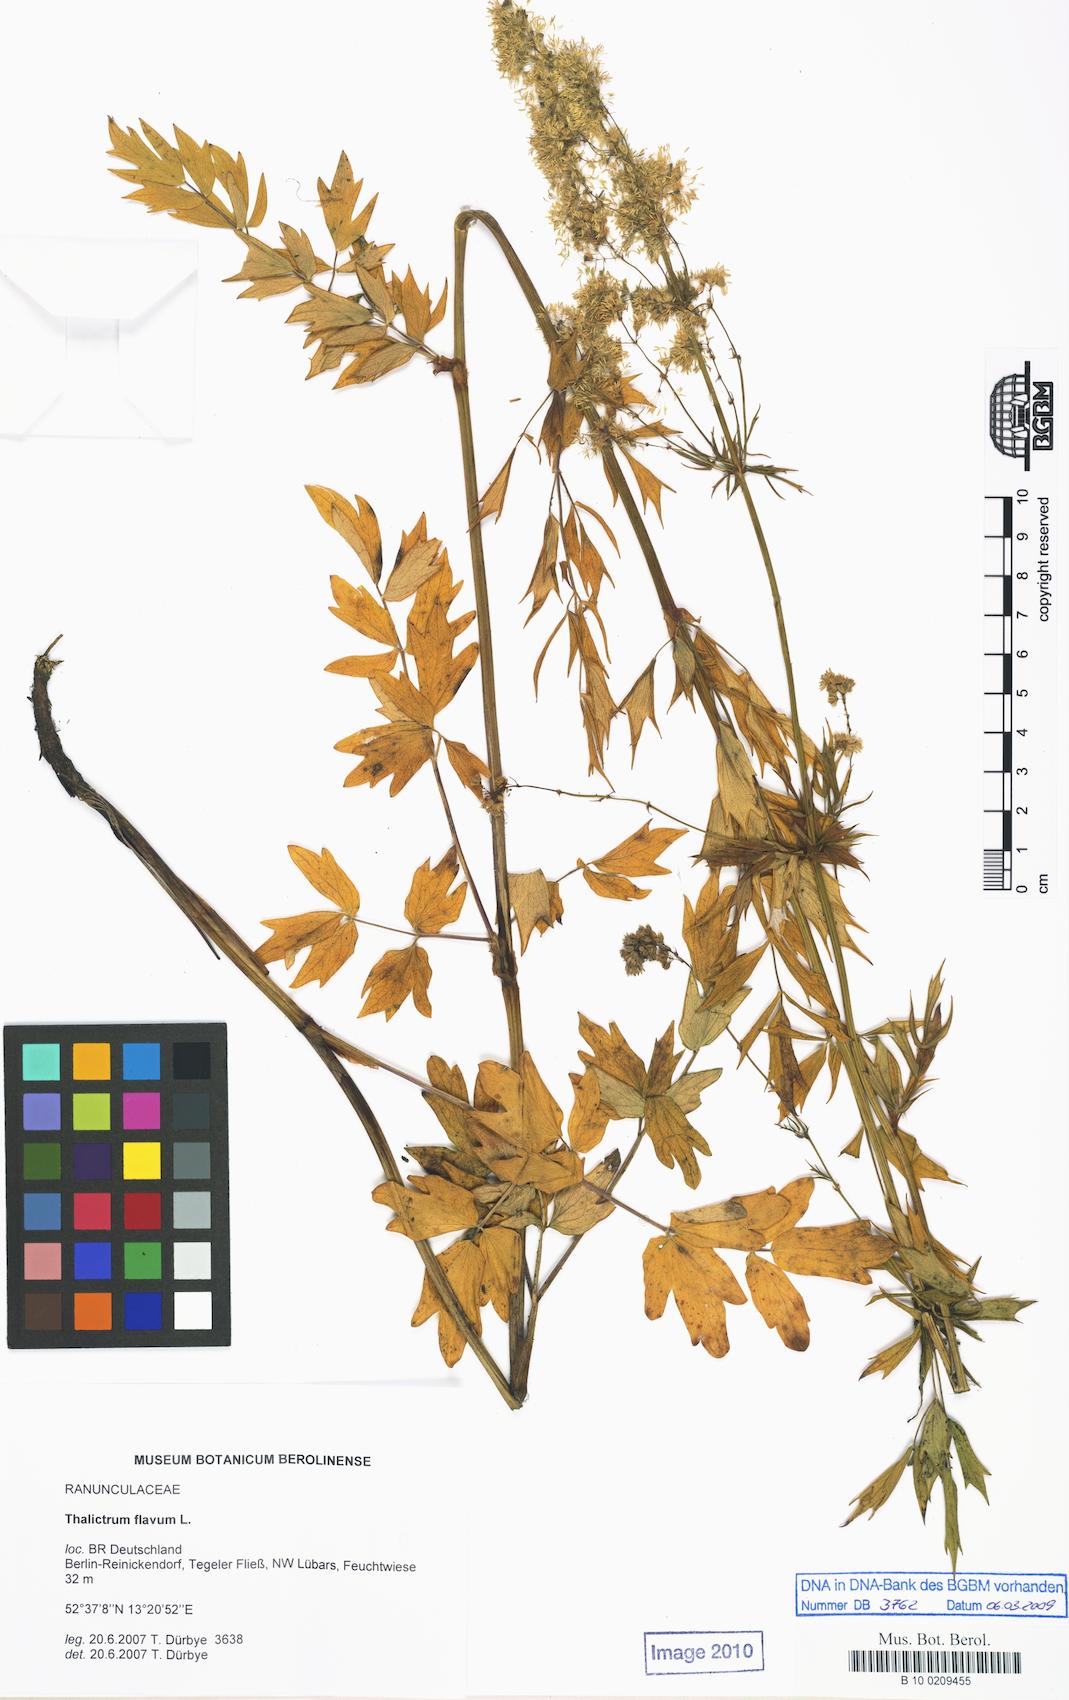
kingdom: Plantae
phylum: Tracheophyta
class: Magnoliopsida
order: Ranunculales
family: Ranunculaceae
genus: Thalictrum
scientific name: Thalictrum flavum
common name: Common meadow-rue
